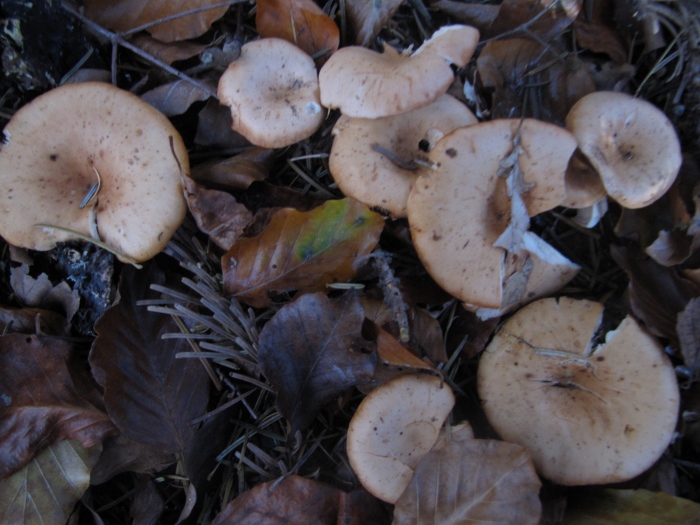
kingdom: Fungi
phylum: Basidiomycota
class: Agaricomycetes
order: Agaricales
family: Tricholomataceae
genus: Paralepista
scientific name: Paralepista flaccida
